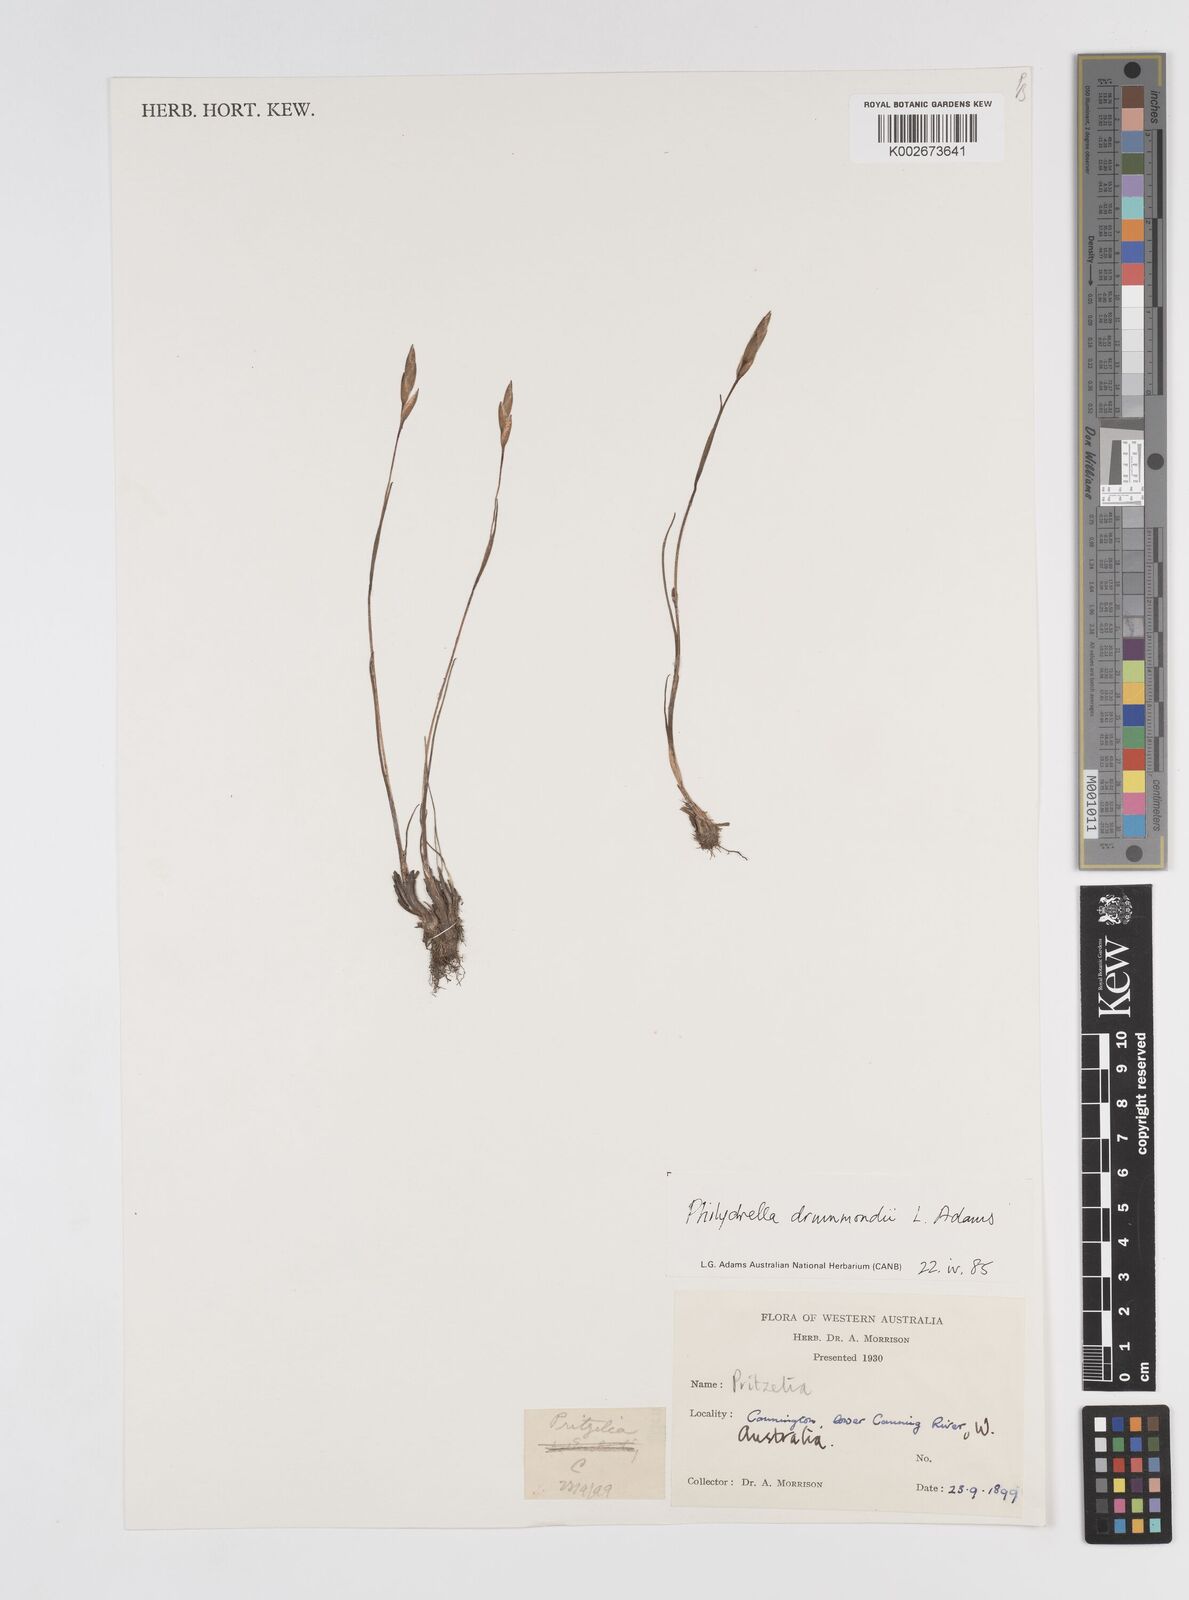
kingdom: Plantae
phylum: Tracheophyta
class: Liliopsida
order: Commelinales
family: Philydraceae
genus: Philydrella
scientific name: Philydrella drummondii
